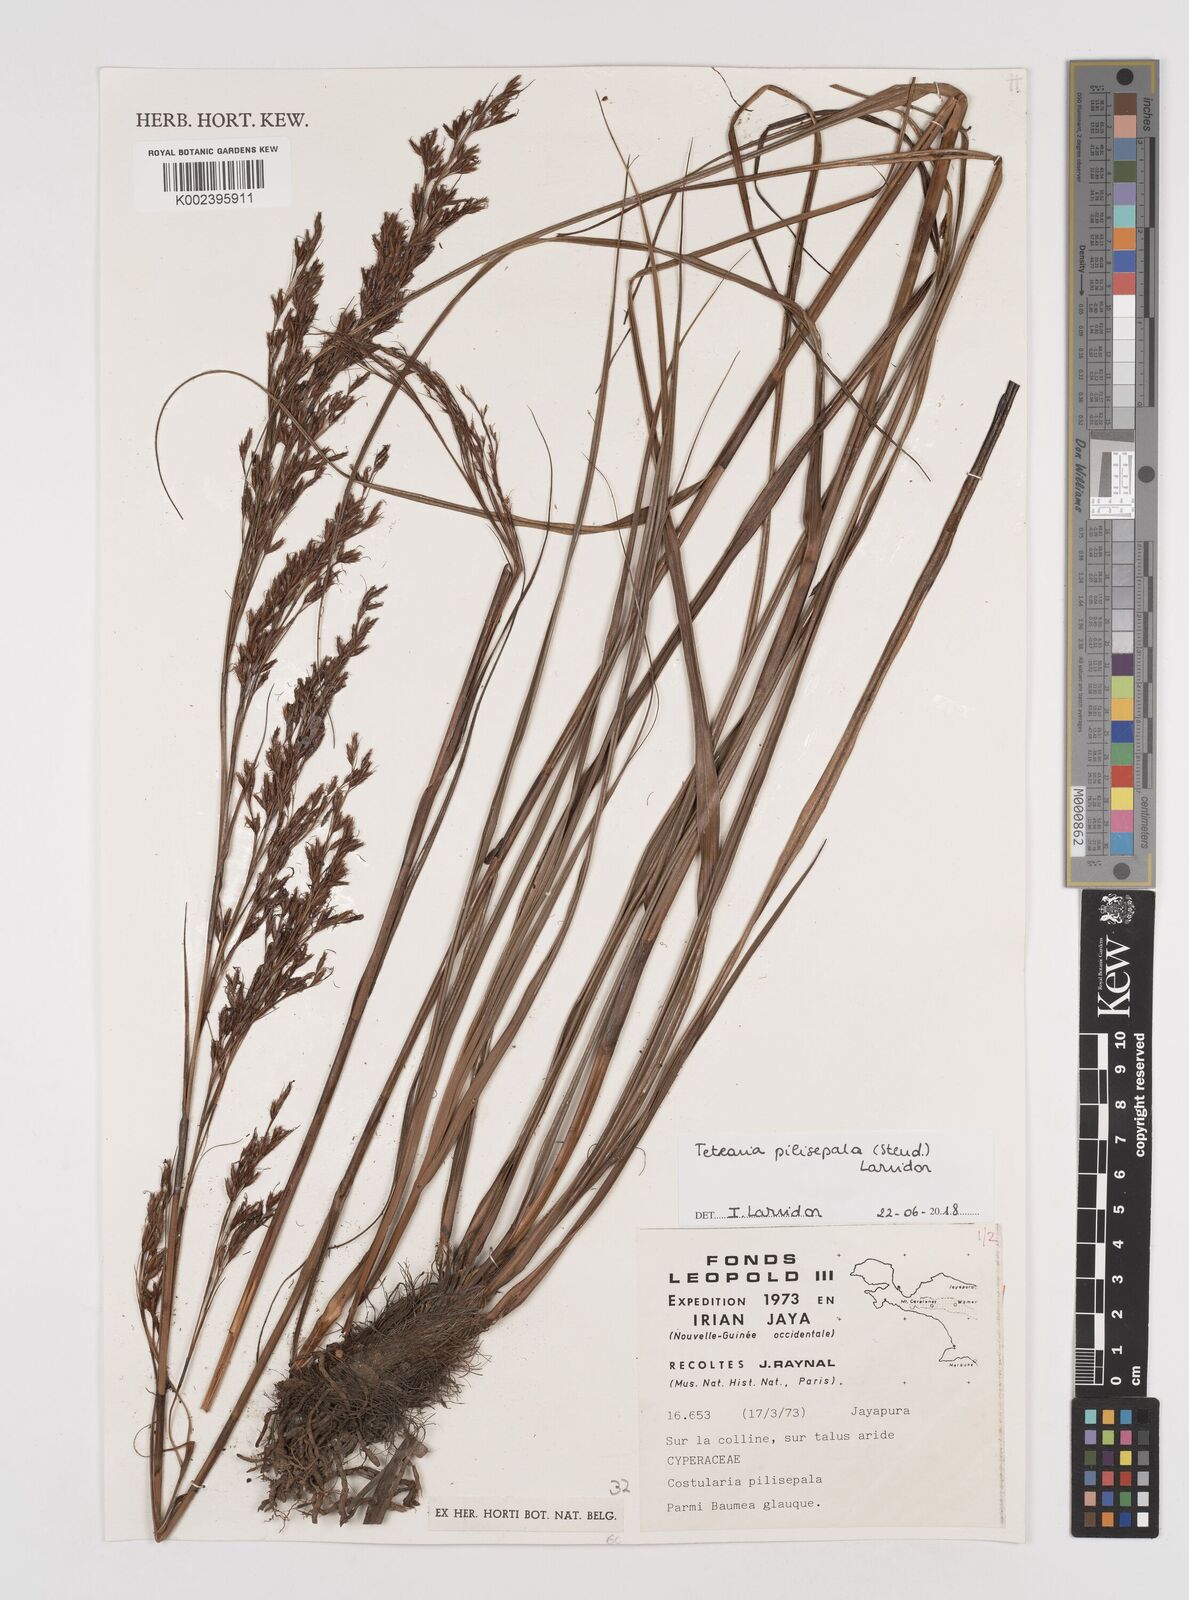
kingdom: Plantae
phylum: Tracheophyta
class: Liliopsida
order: Poales
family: Cyperaceae
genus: Tetraria
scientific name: Tetraria pilisepala
